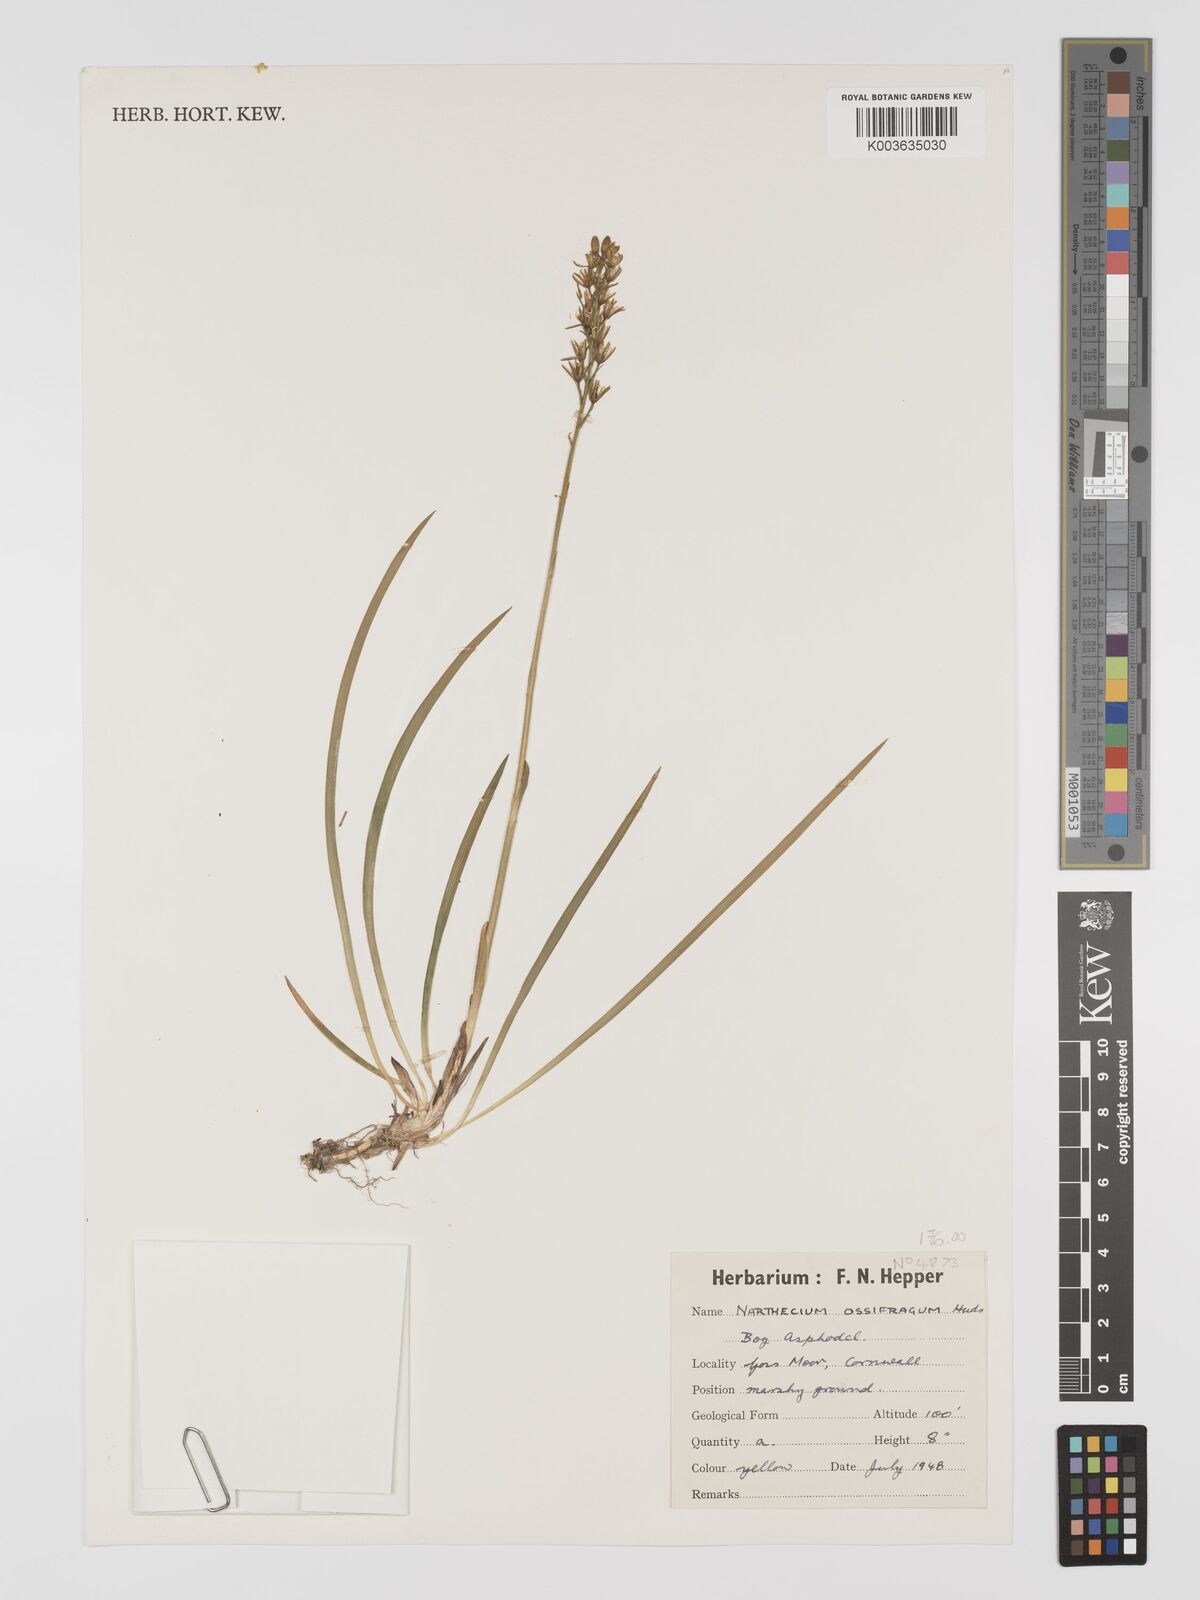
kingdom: Plantae
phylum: Tracheophyta
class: Liliopsida
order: Dioscoreales
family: Nartheciaceae
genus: Narthecium
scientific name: Narthecium ossifragum
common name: Bog asphodel
